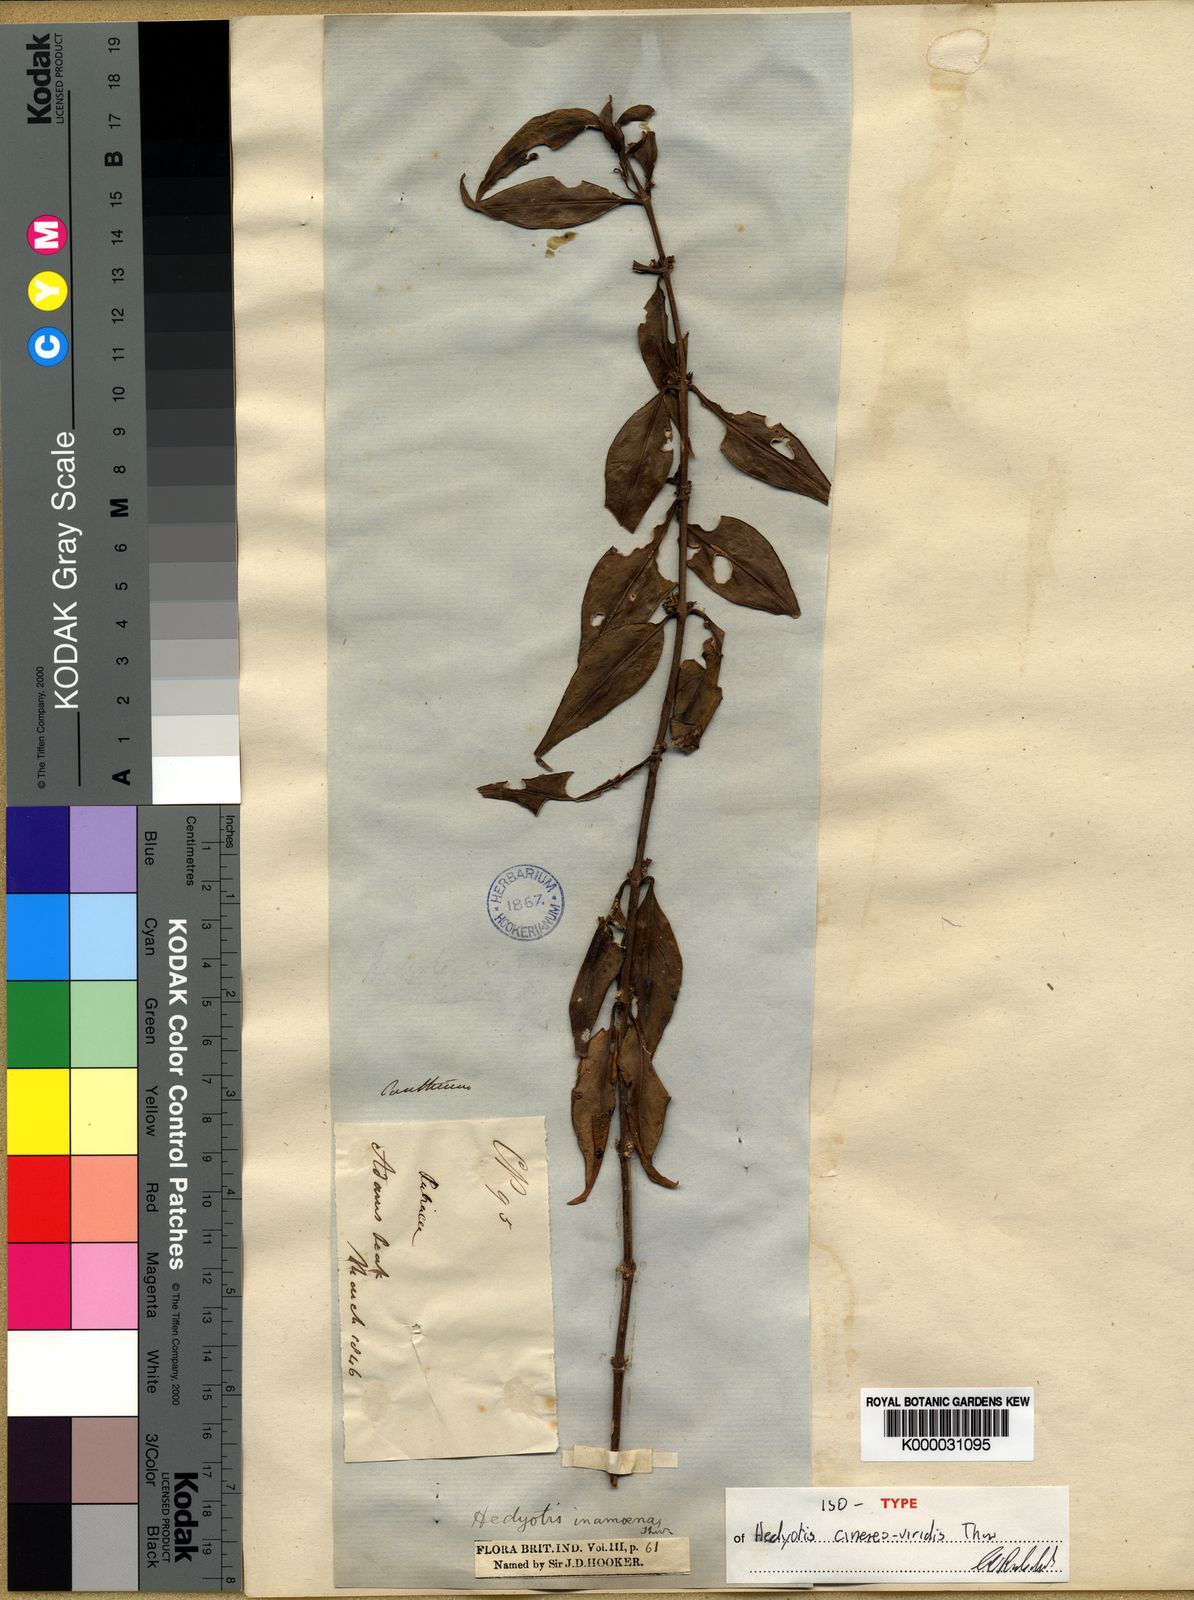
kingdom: Plantae
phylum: Tracheophyta
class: Magnoliopsida
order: Gentianales
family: Rubiaceae
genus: Hedyotis
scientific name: Hedyotis cinereoviridis
